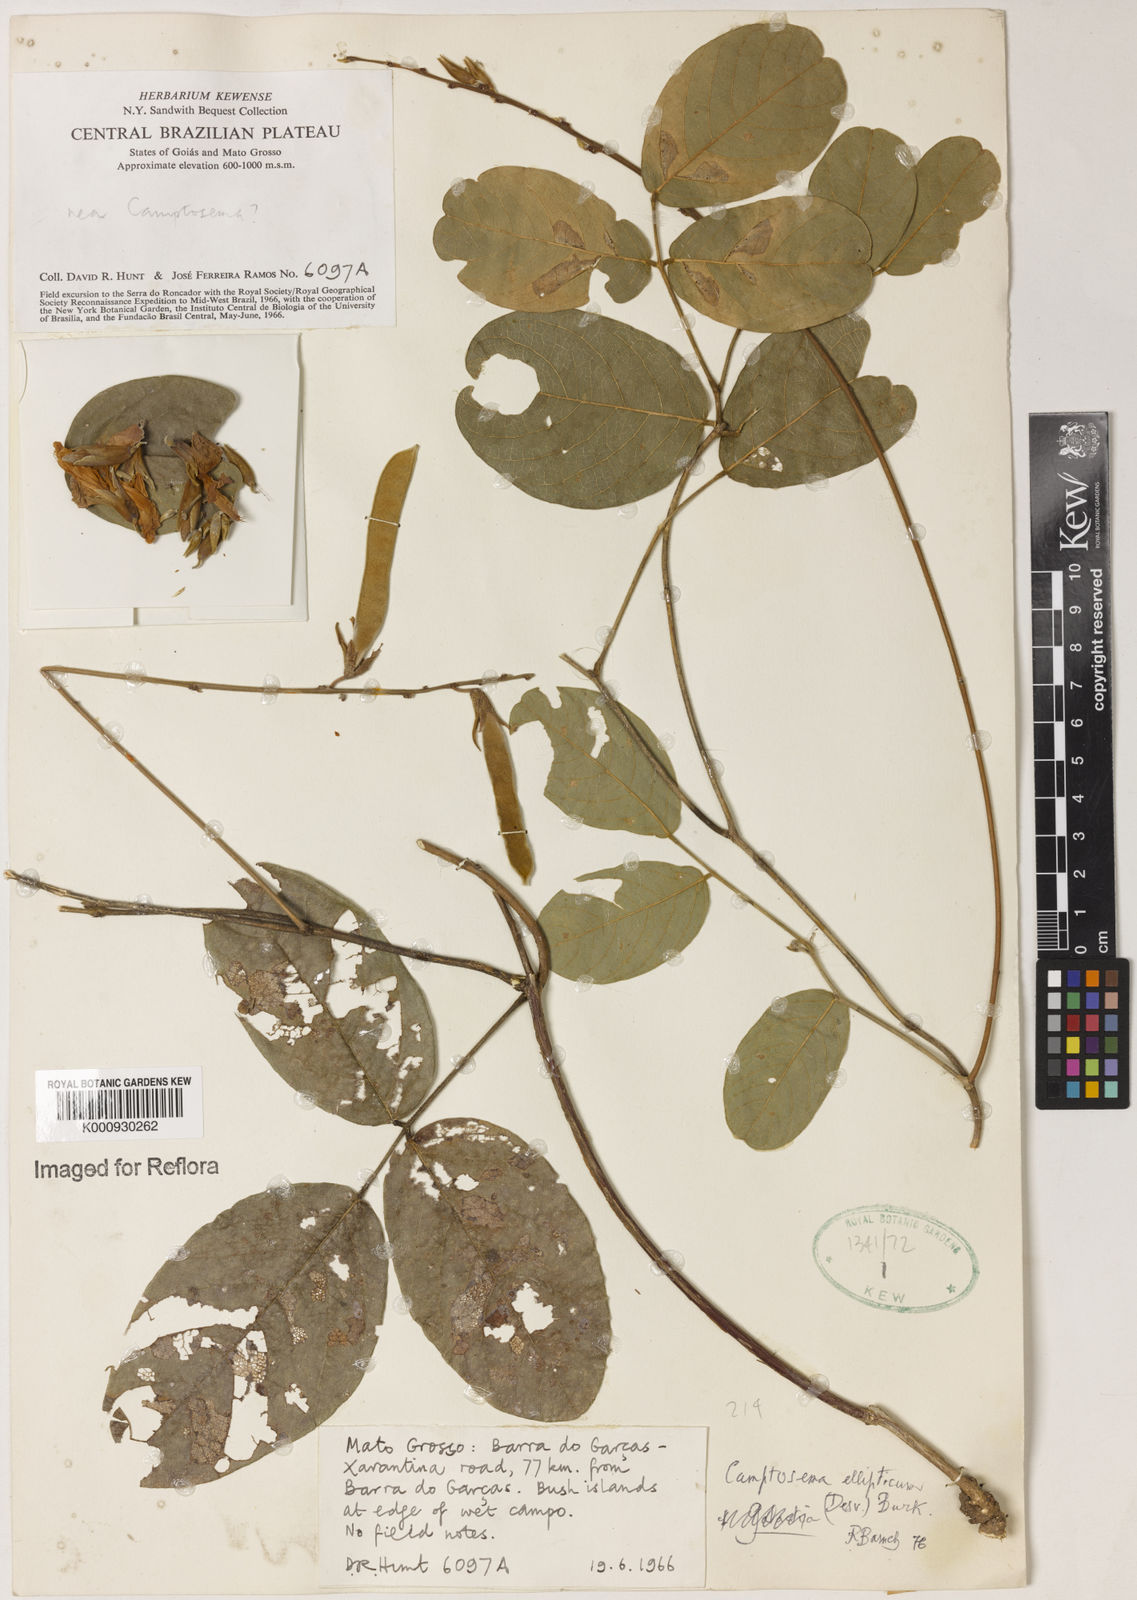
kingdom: Plantae
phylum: Tracheophyta
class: Magnoliopsida
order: Fabales
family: Fabaceae
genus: Camptosema
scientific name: Camptosema
